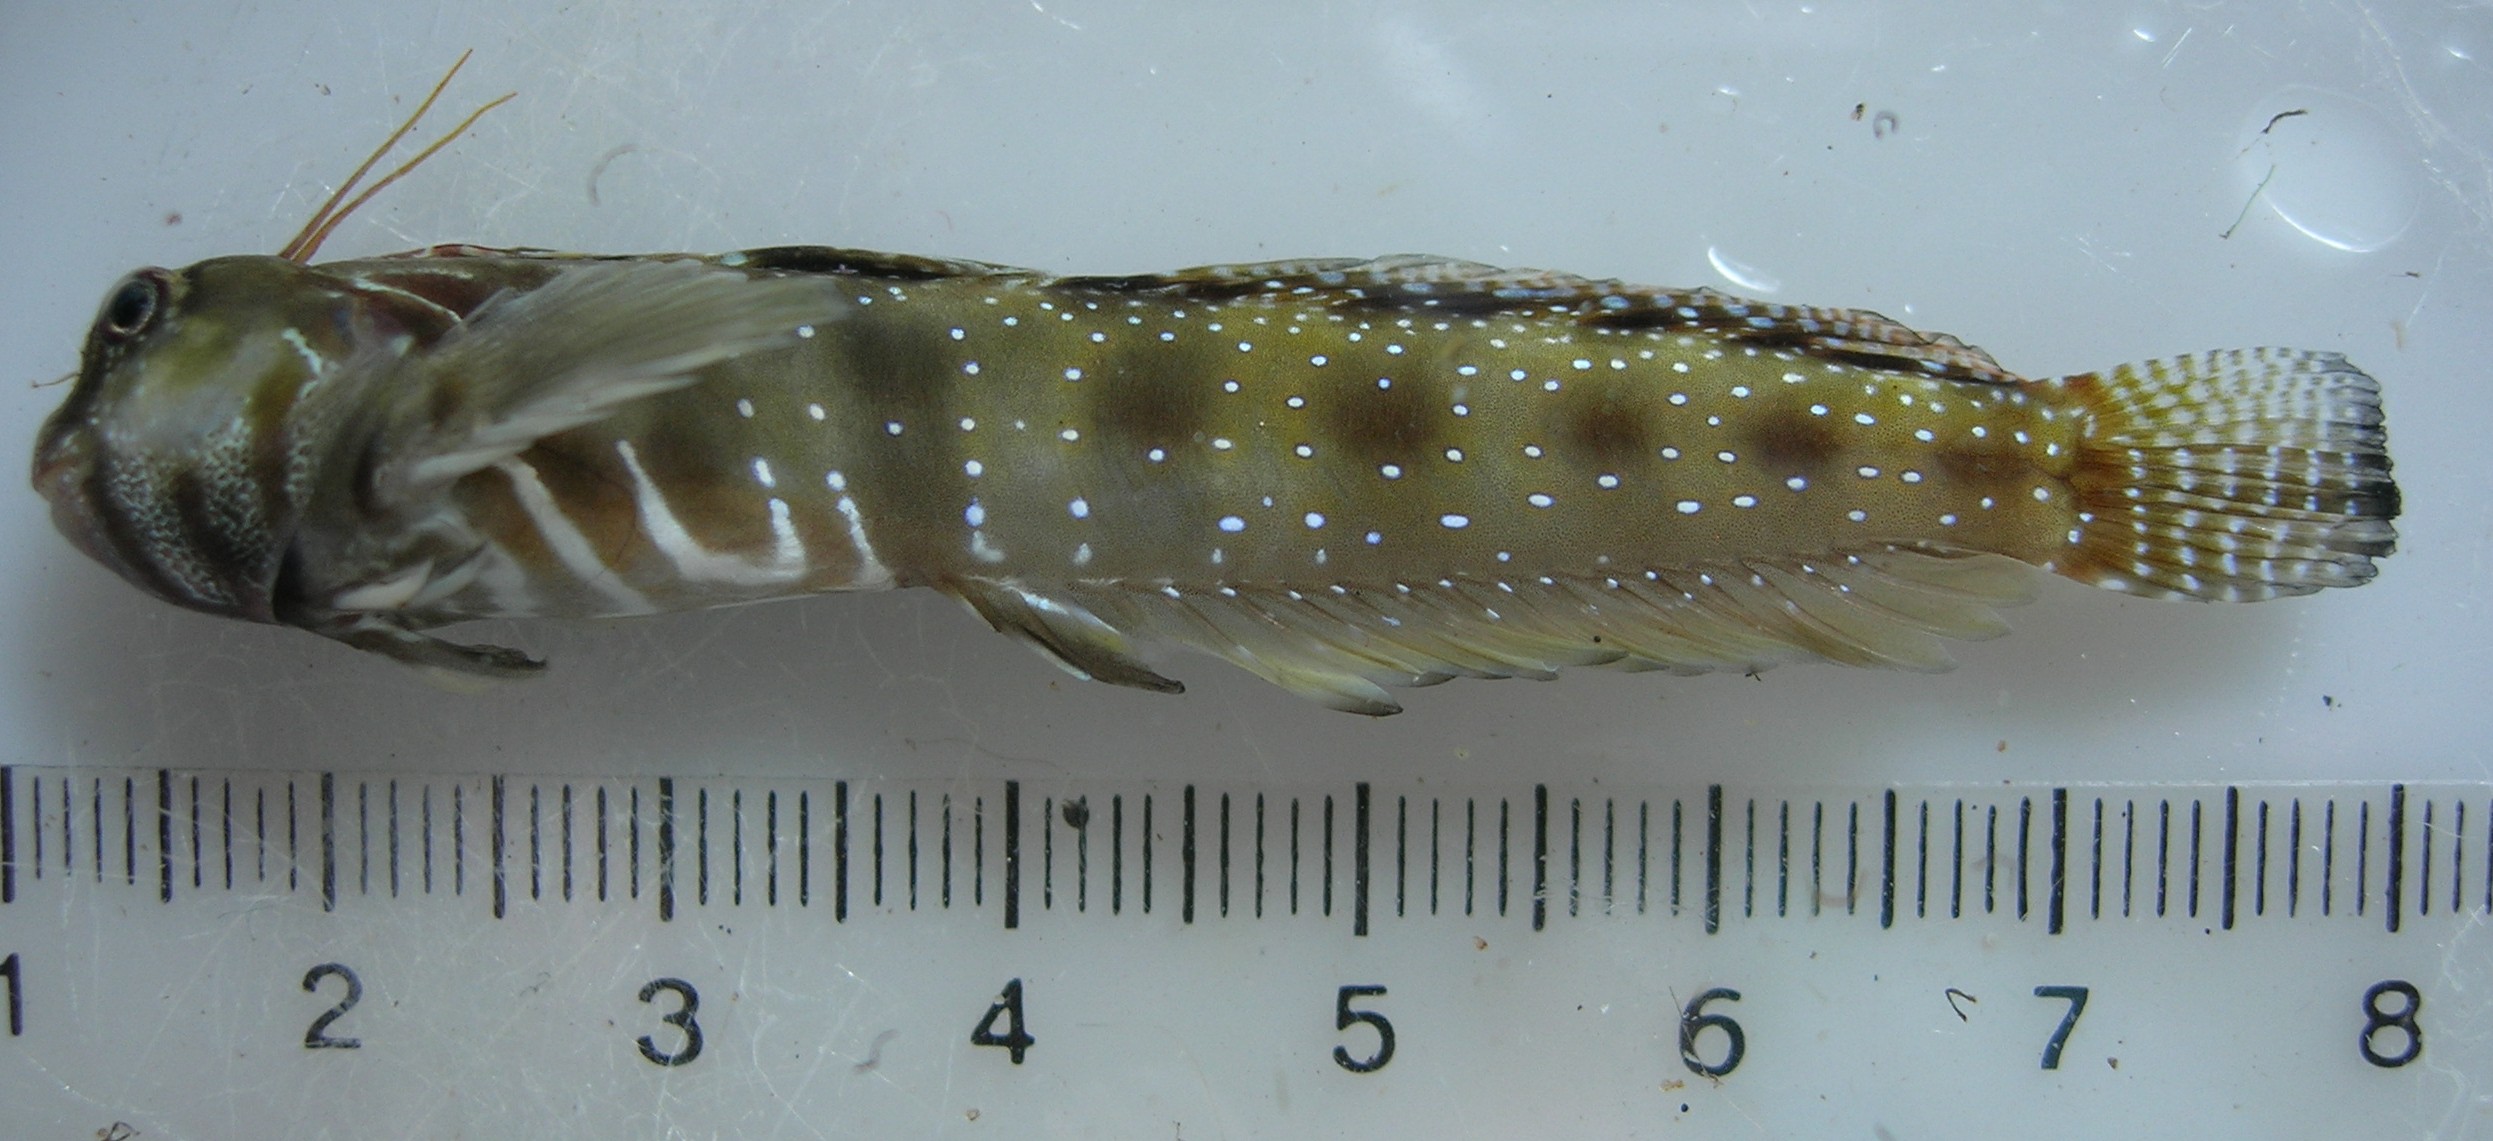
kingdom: Animalia
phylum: Chordata
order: Perciformes
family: Blenniidae
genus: Antennablennius
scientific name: Antennablennius bifilum
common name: Horned rockskipper
